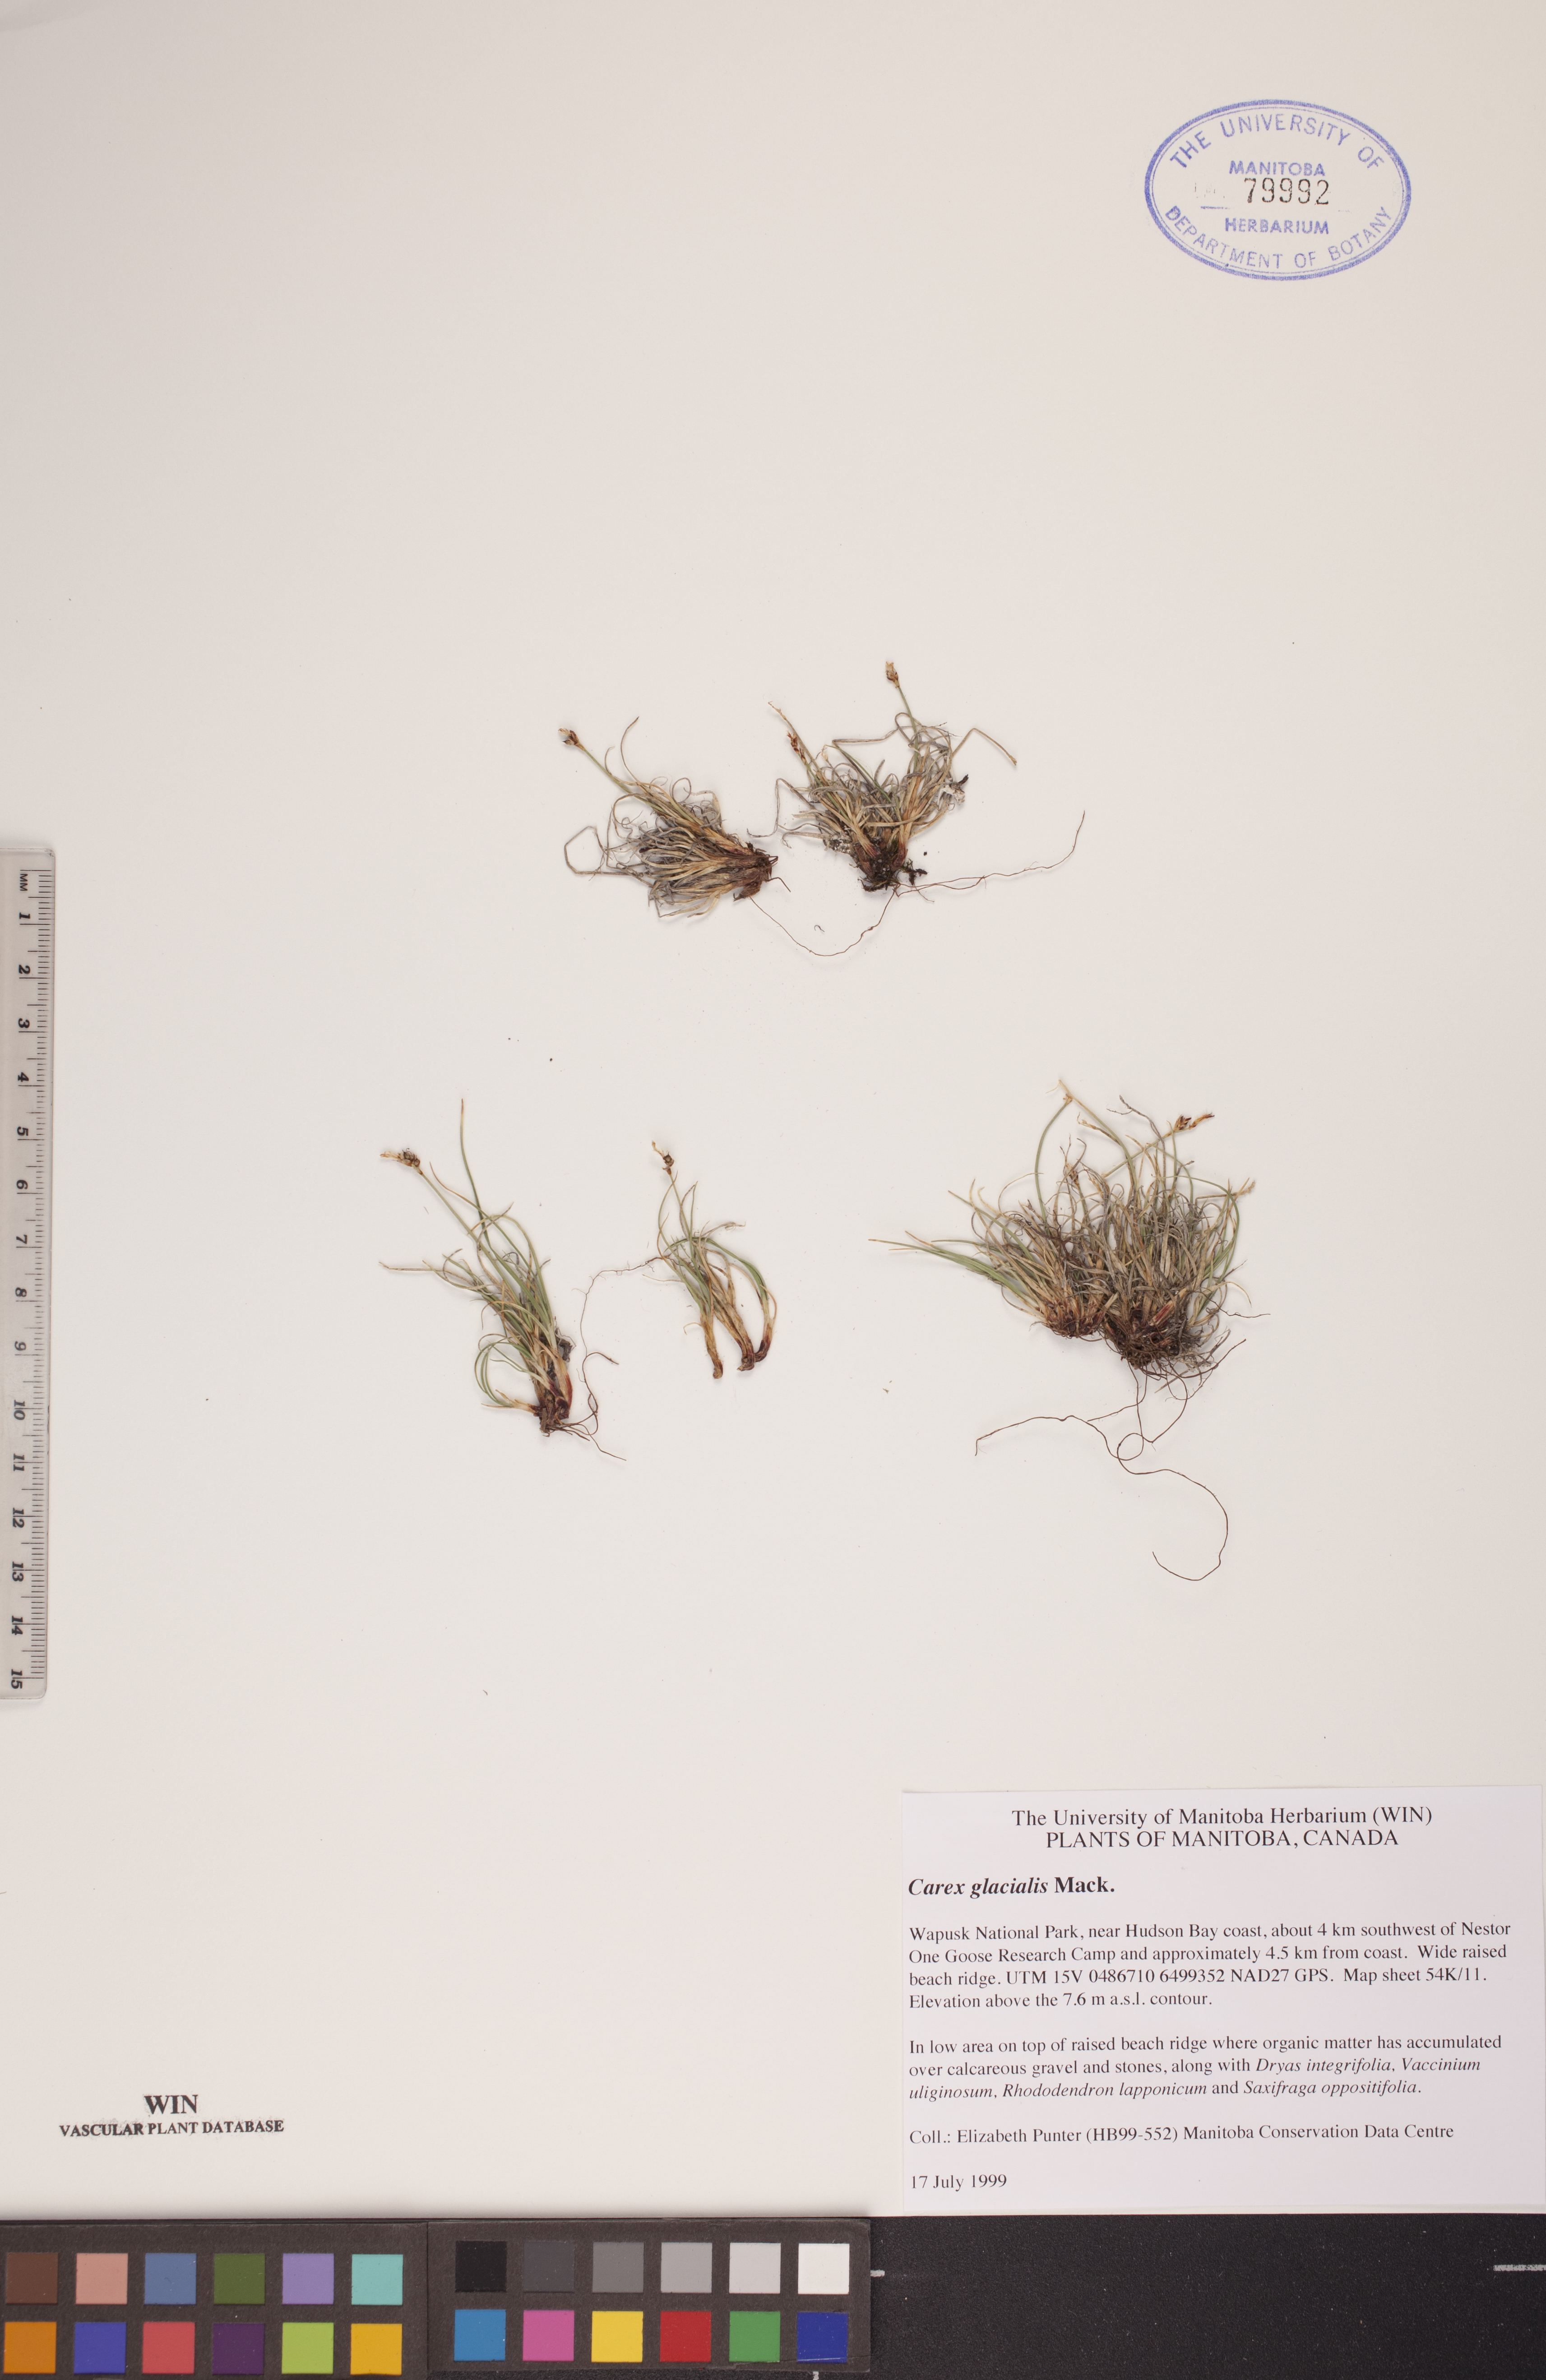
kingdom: Plantae
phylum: Tracheophyta
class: Liliopsida
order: Poales
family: Cyperaceae
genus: Carex
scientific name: Carex glacialis
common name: Newfoundland sedge
